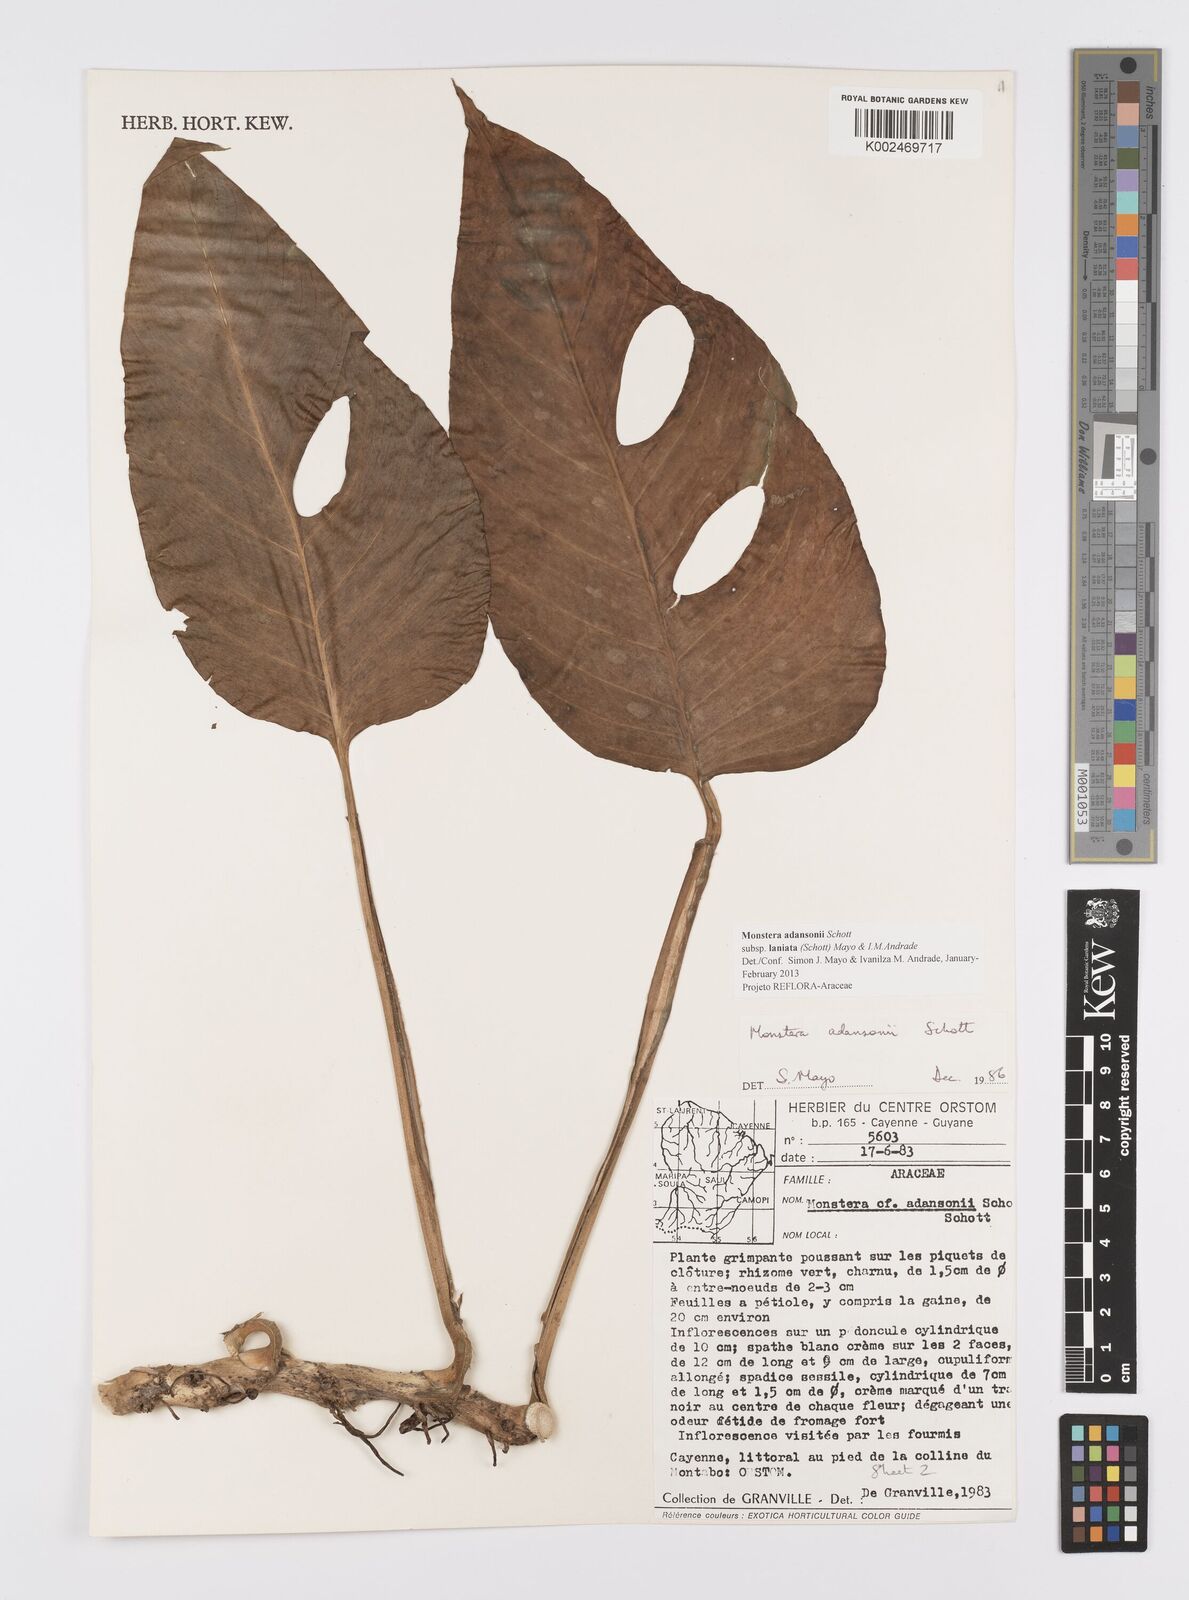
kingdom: Plantae
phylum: Tracheophyta
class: Liliopsida
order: Alismatales
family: Araceae
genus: Monstera
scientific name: Monstera adansonii
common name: Tarovine
